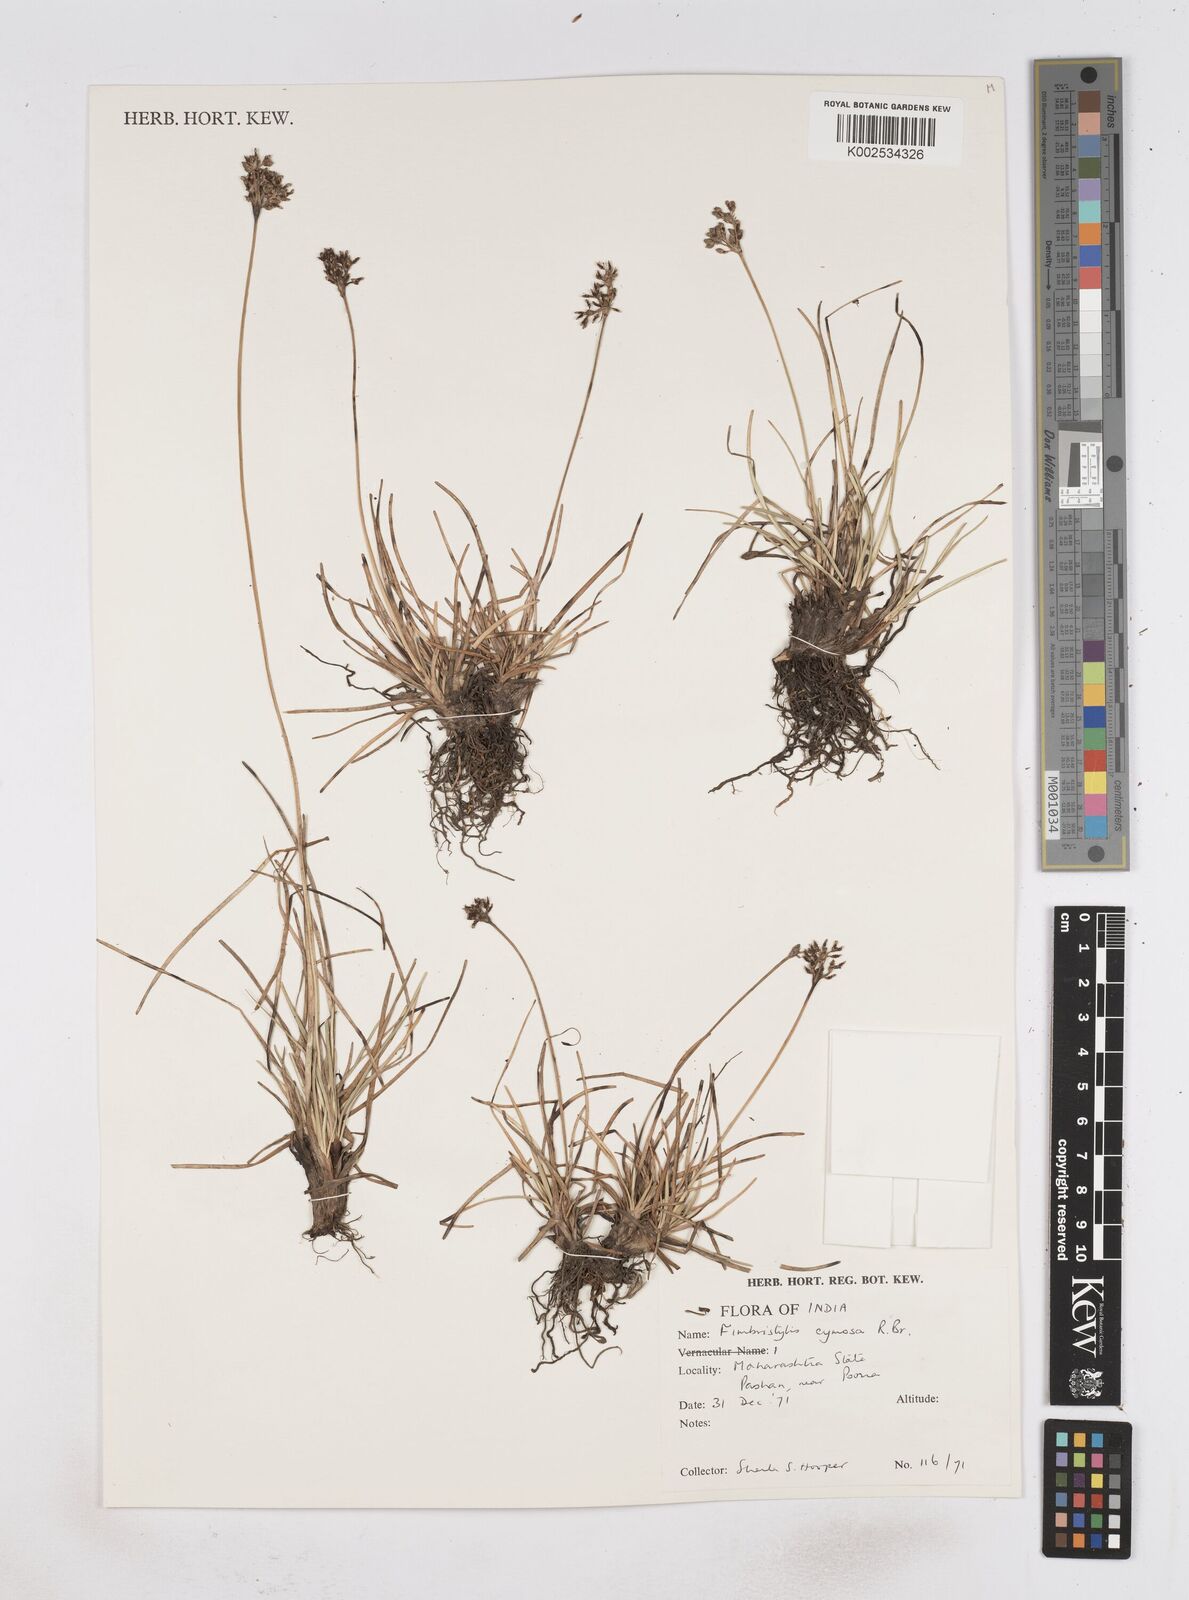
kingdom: Plantae
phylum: Tracheophyta
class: Liliopsida
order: Poales
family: Cyperaceae
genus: Fimbristylis
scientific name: Fimbristylis cymosa
